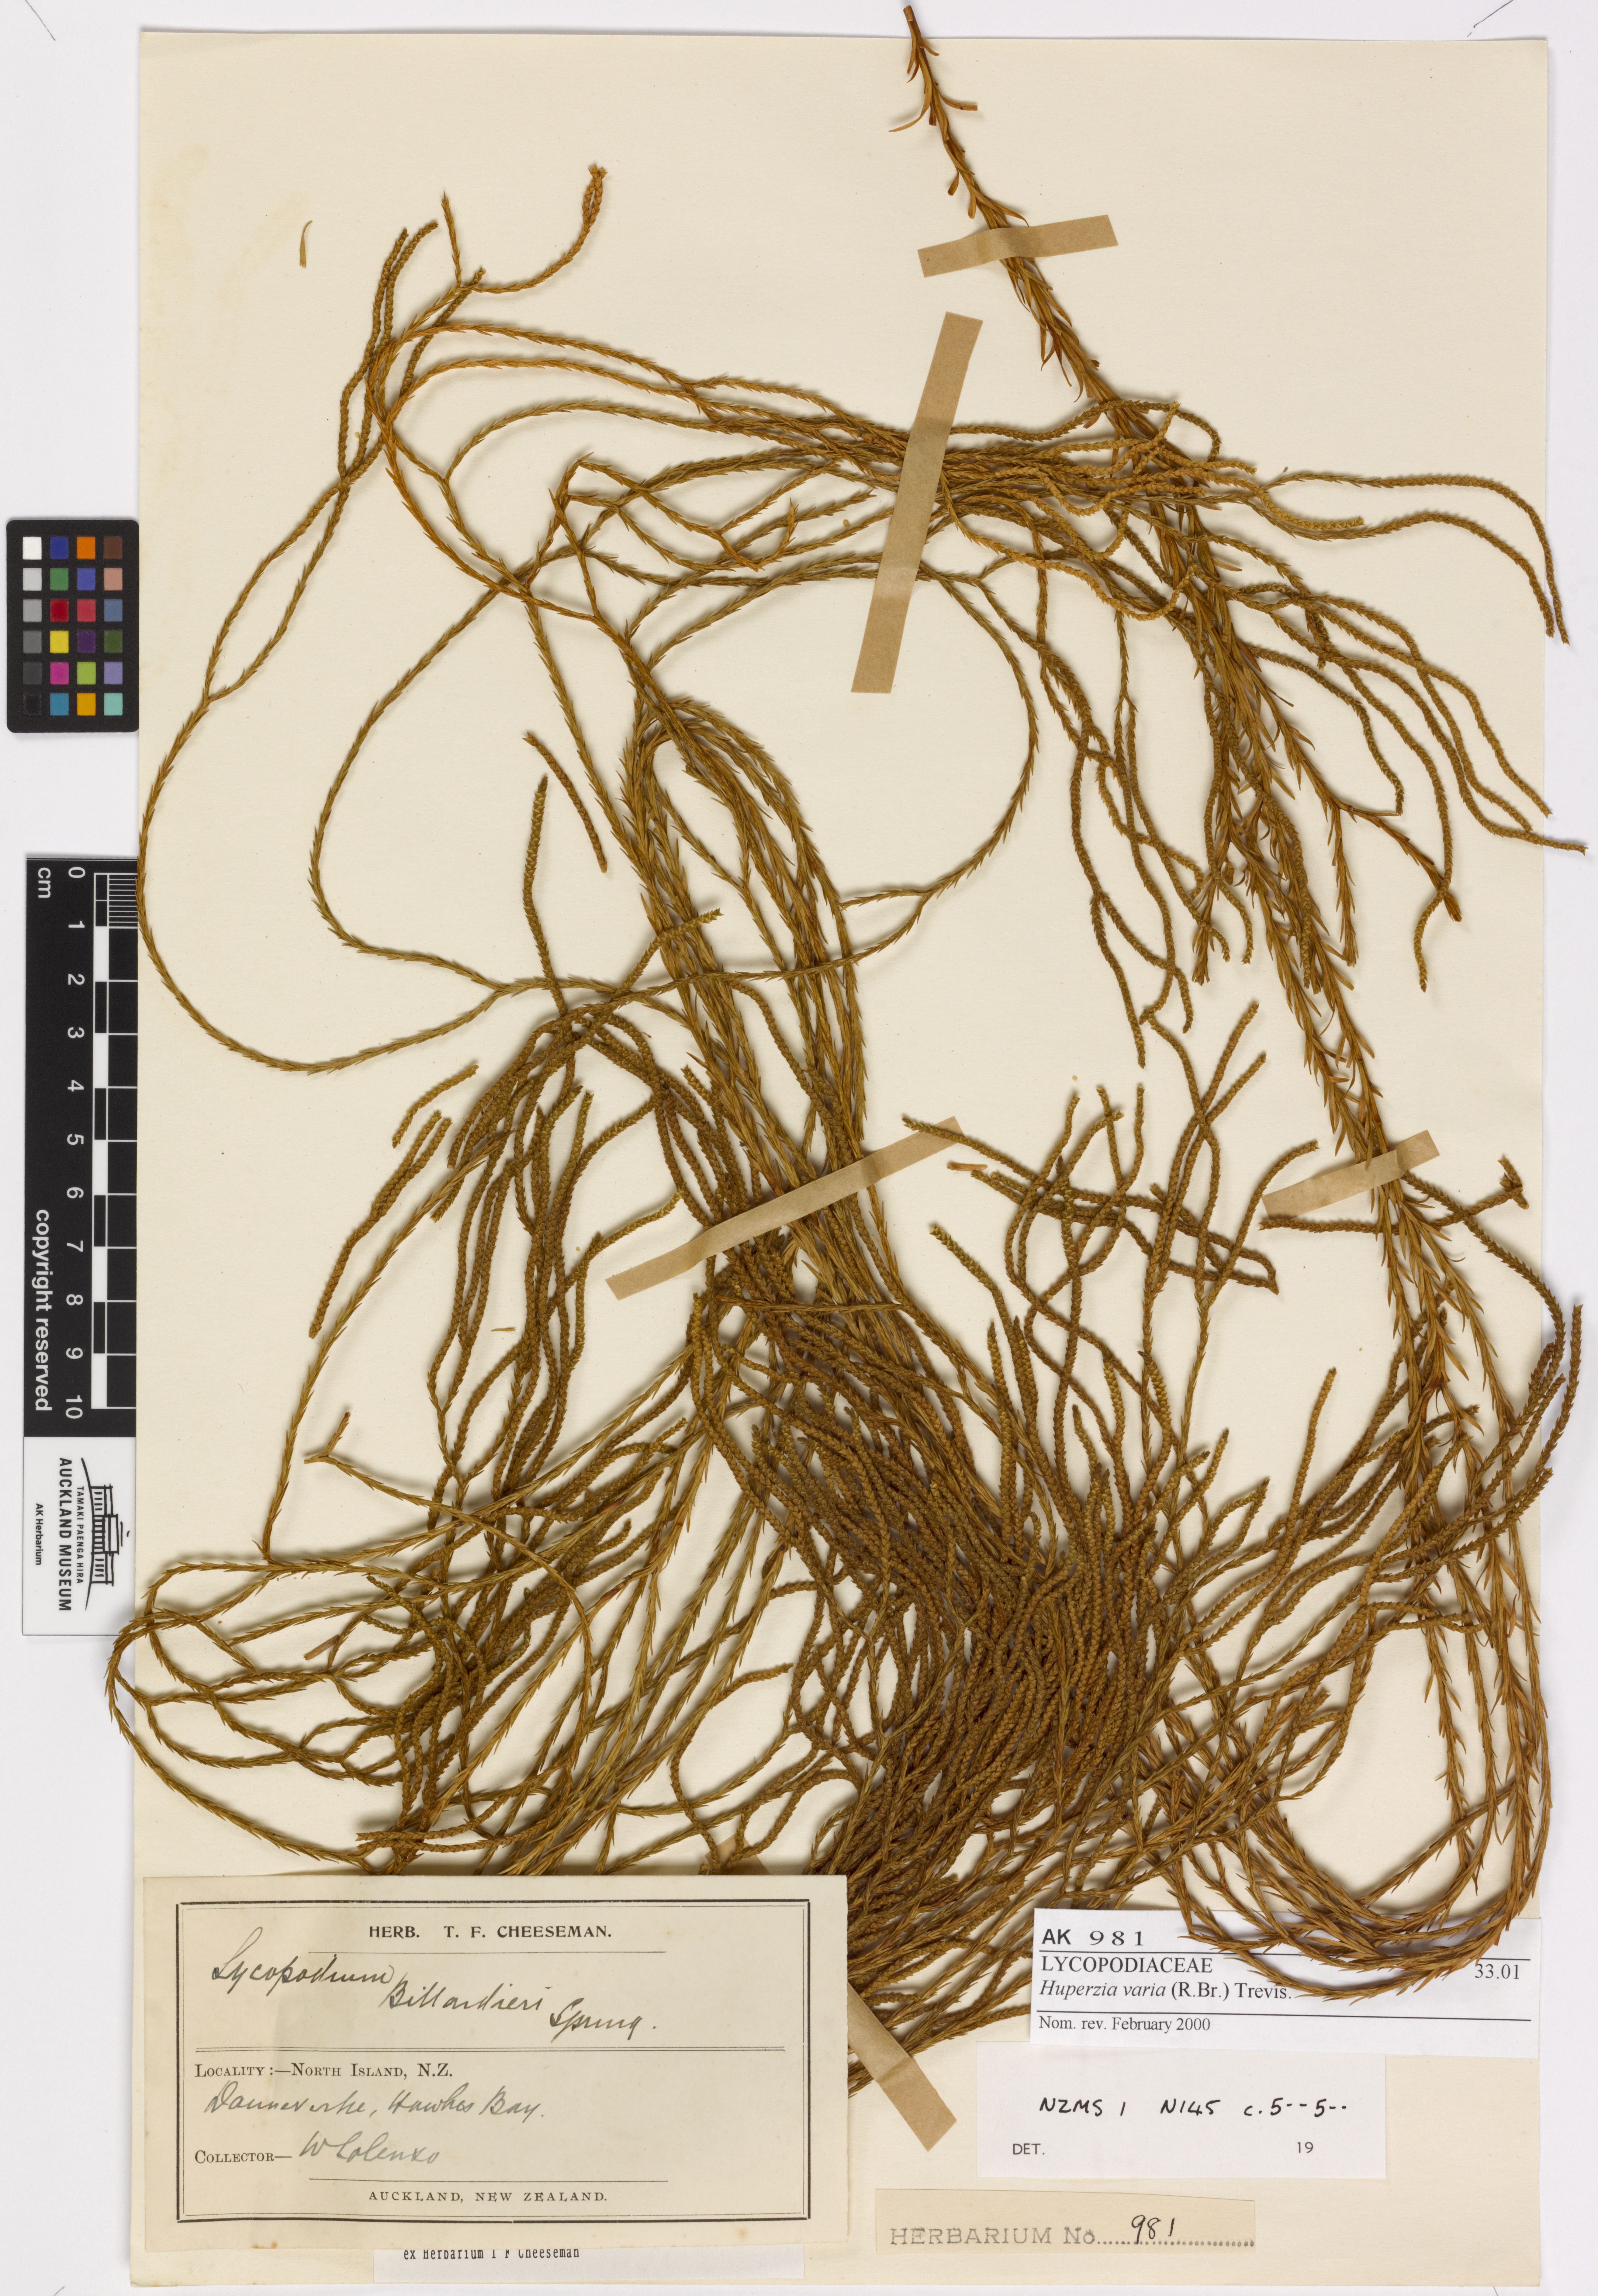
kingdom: Plantae
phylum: Tracheophyta
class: Lycopodiopsida
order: Lycopodiales
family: Lycopodiaceae
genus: Phlegmariurus
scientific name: Phlegmariurus billardierei
